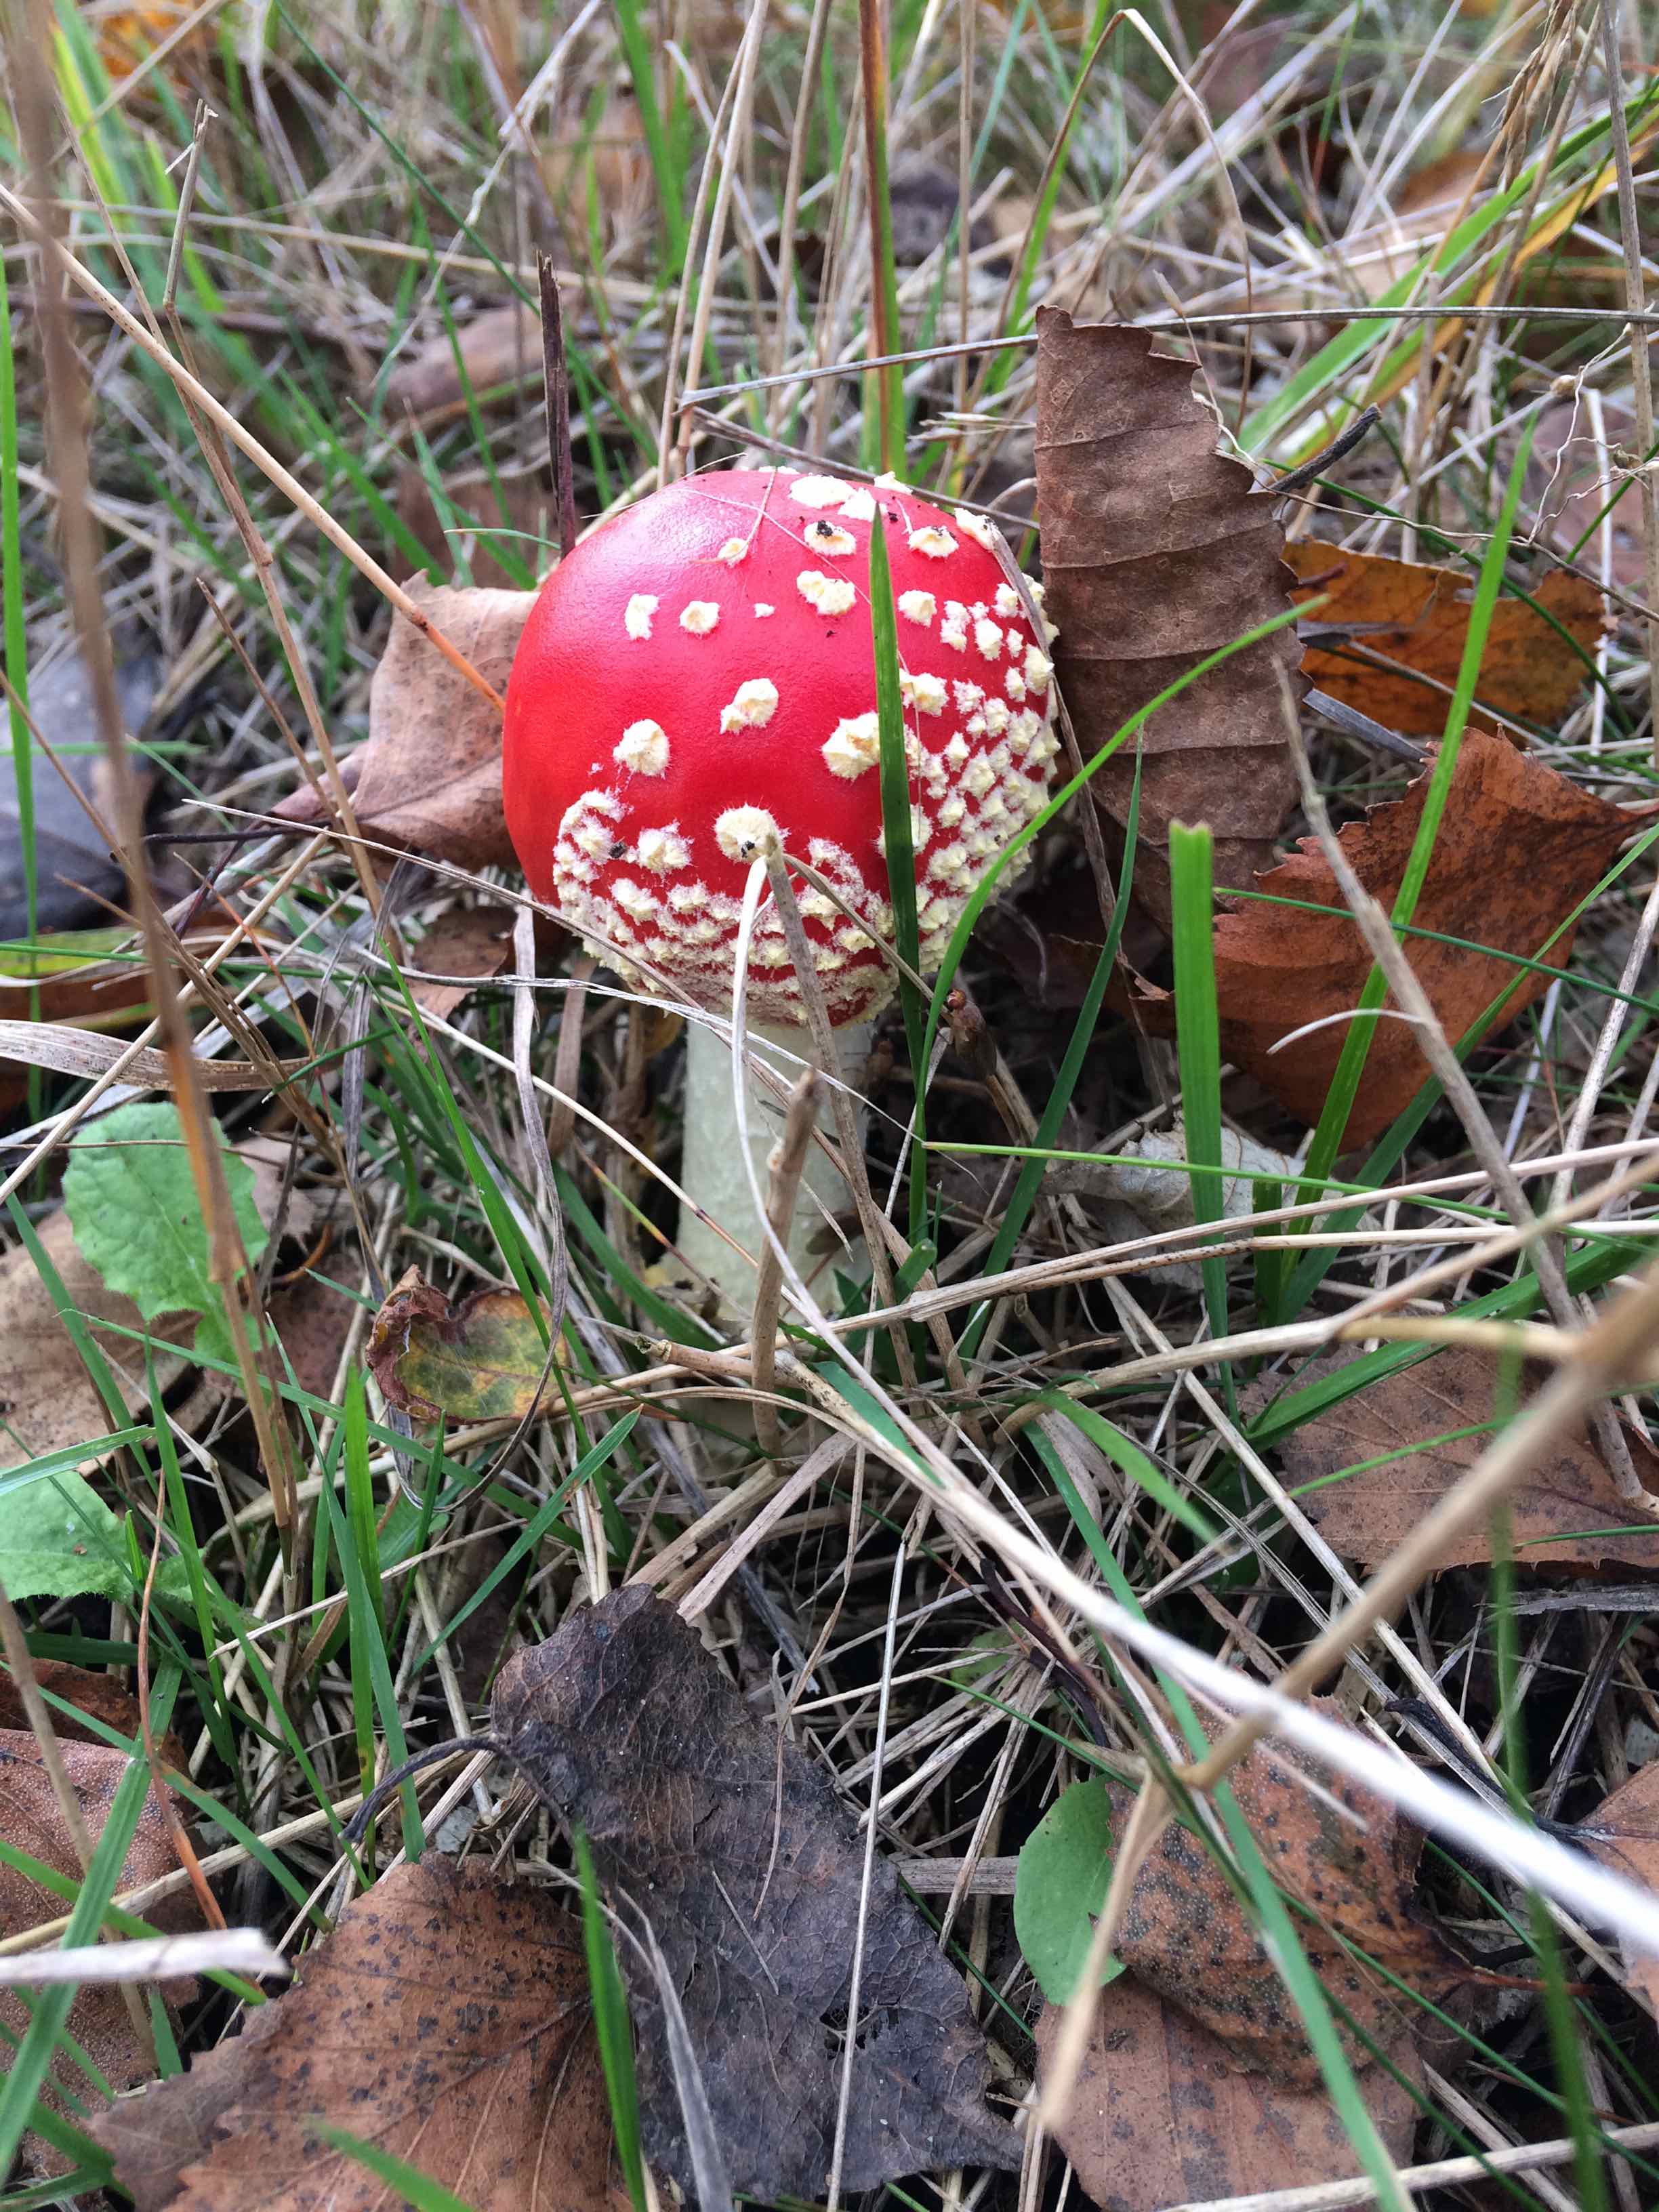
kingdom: Fungi
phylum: Basidiomycota
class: Agaricomycetes
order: Agaricales
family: Amanitaceae
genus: Amanita
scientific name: Amanita muscaria
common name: rød fluesvamp
